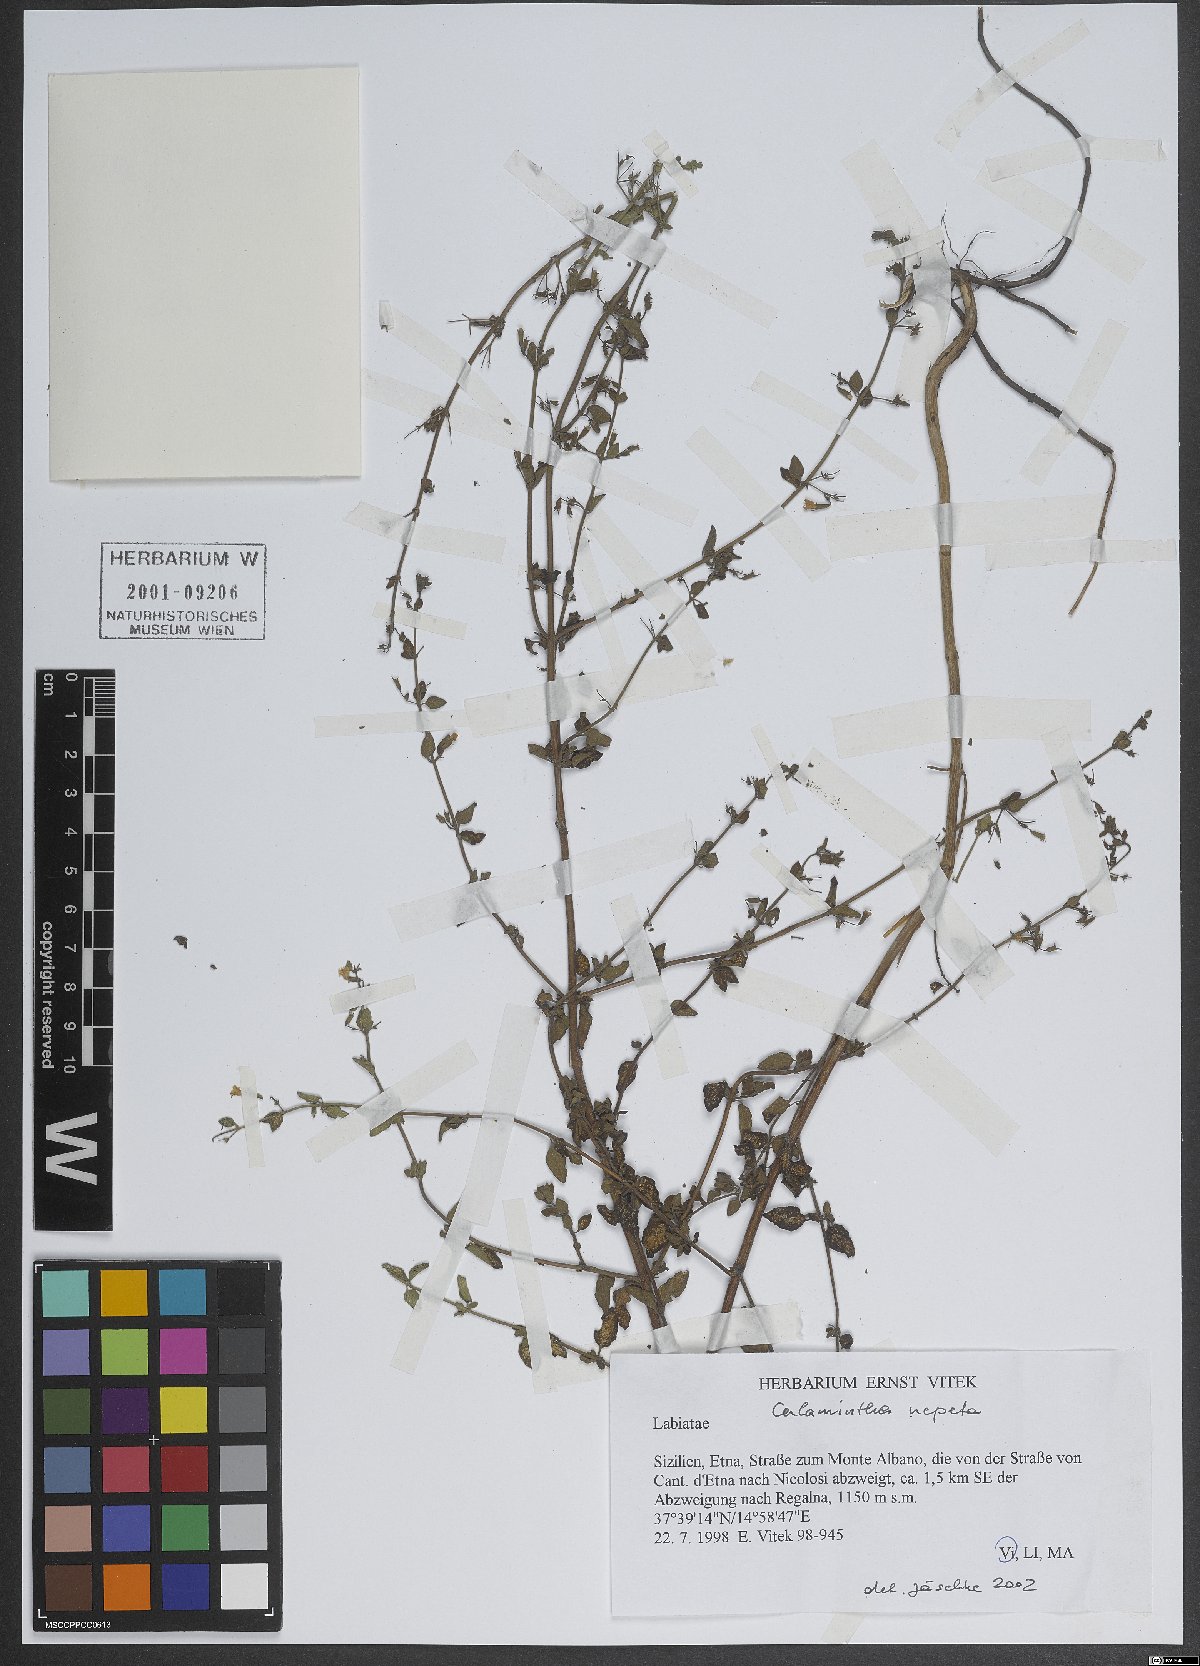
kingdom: Plantae
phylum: Tracheophyta
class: Magnoliopsida
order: Lamiales
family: Lamiaceae
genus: Clinopodium
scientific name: Clinopodium nepeta
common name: Lesser calamint
